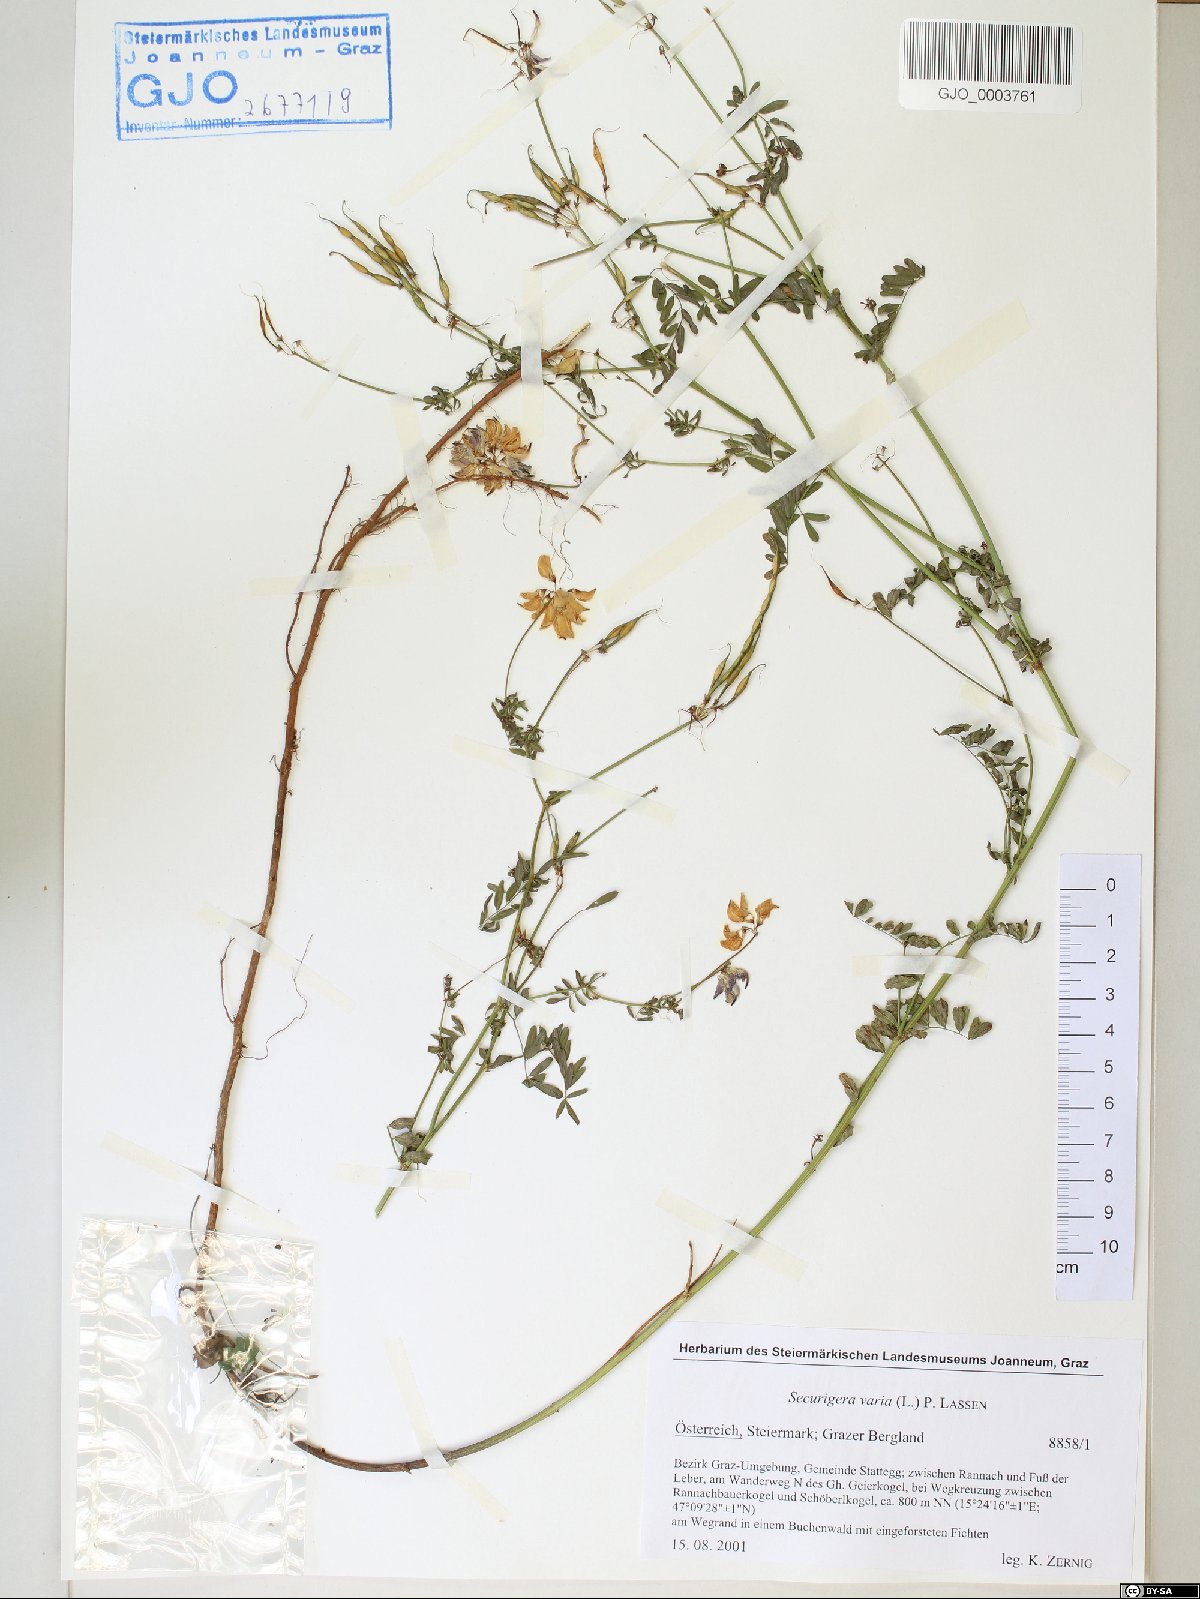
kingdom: Plantae
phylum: Tracheophyta
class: Magnoliopsida
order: Fabales
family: Fabaceae
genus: Coronilla
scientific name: Coronilla varia
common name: Crownvetch
